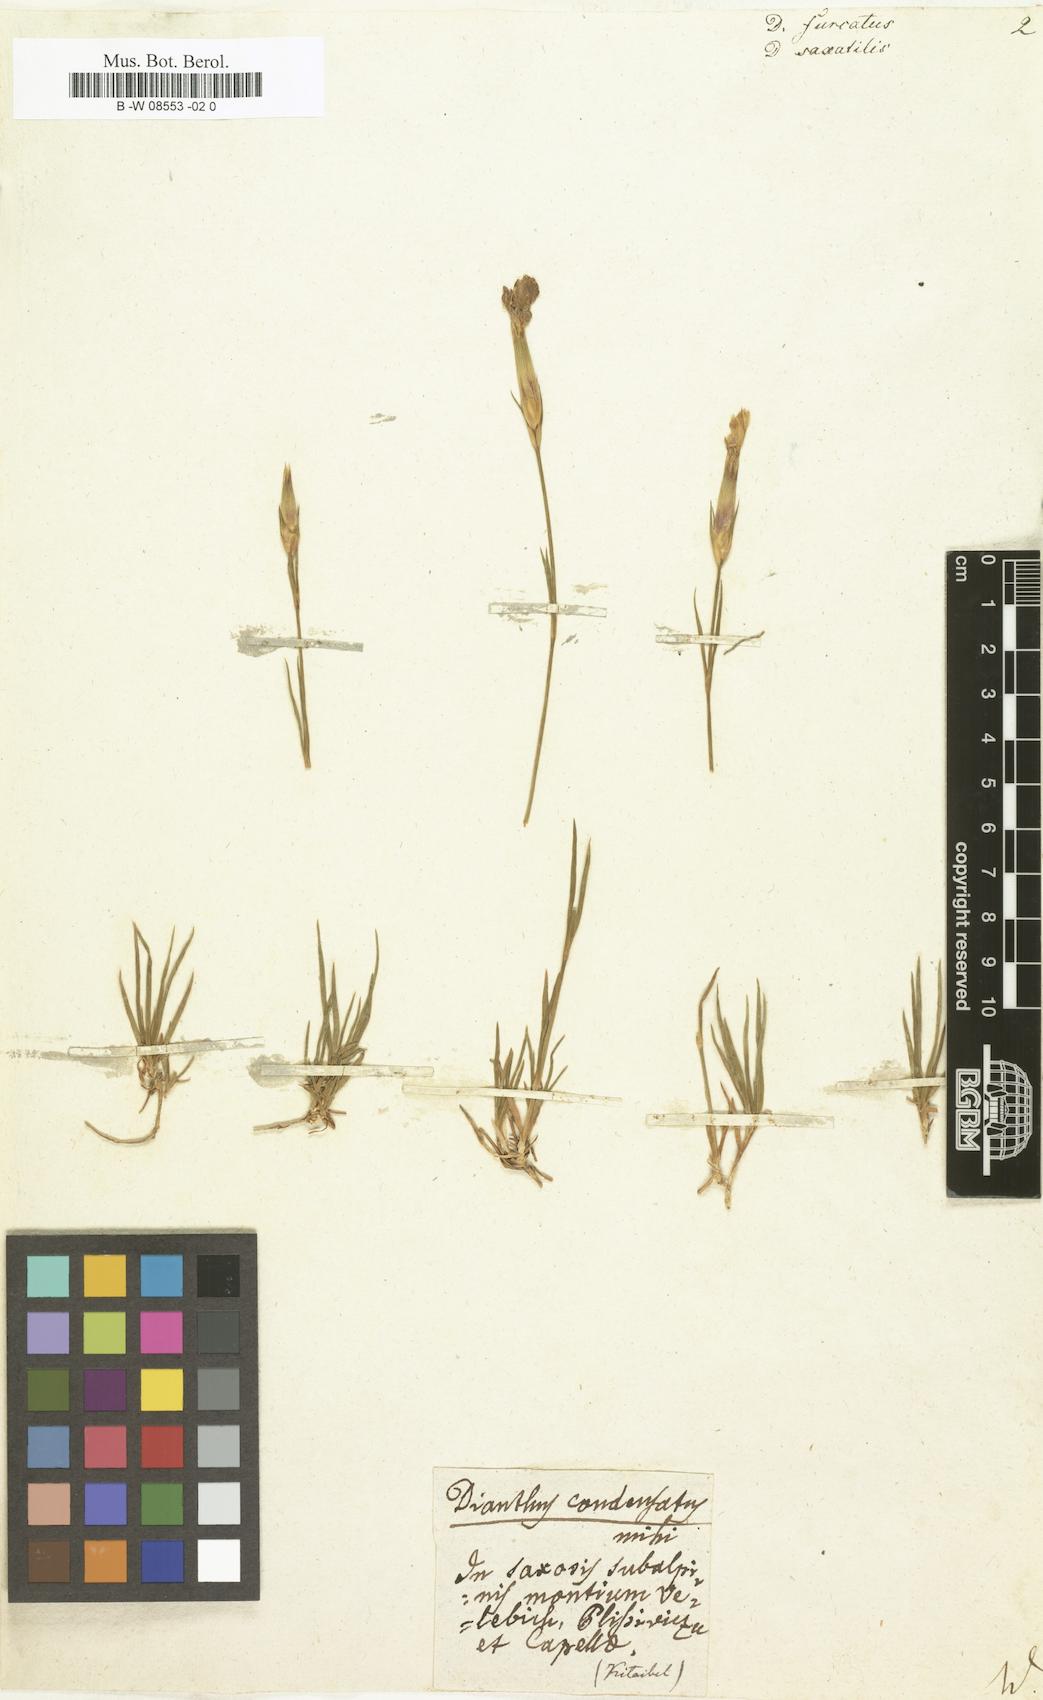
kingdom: Plantae
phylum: Tracheophyta
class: Magnoliopsida
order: Caryophyllales
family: Caryophyllaceae
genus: Dianthus
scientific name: Dianthus furcatus
